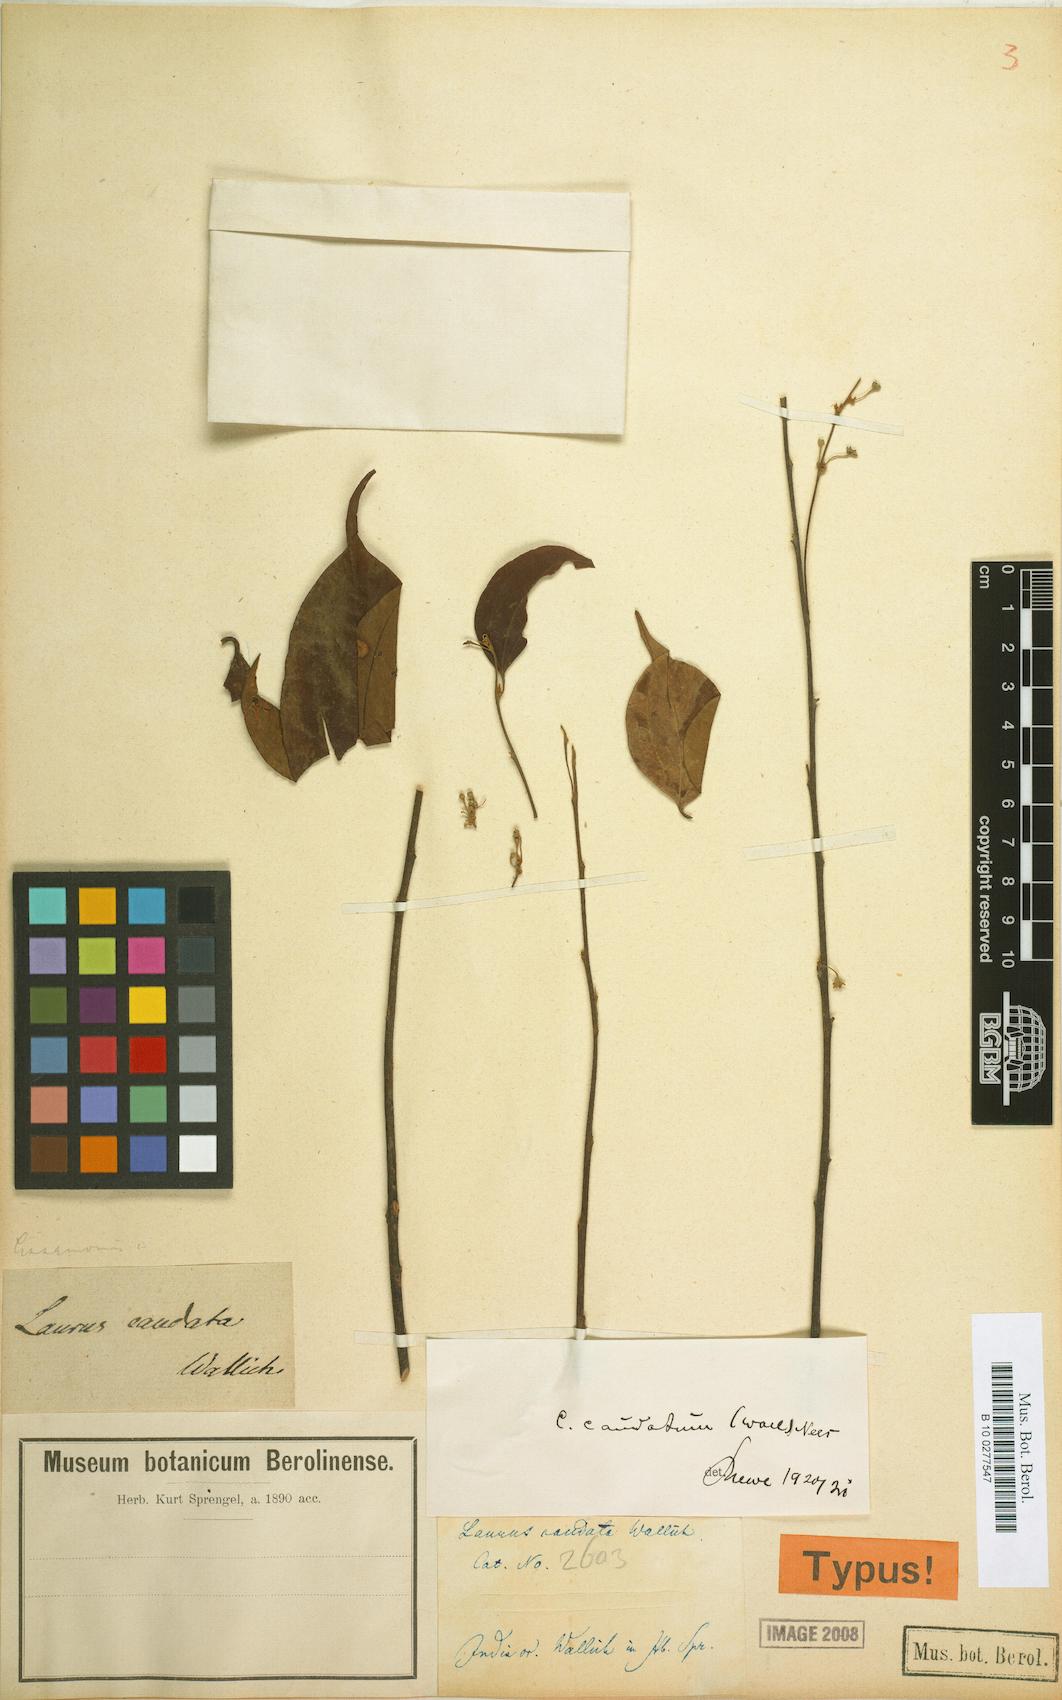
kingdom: Plantae
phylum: Tracheophyta
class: Magnoliopsida
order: Laurales
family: Lauraceae
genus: Neocinnamomum
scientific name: Neocinnamomum caudatum
